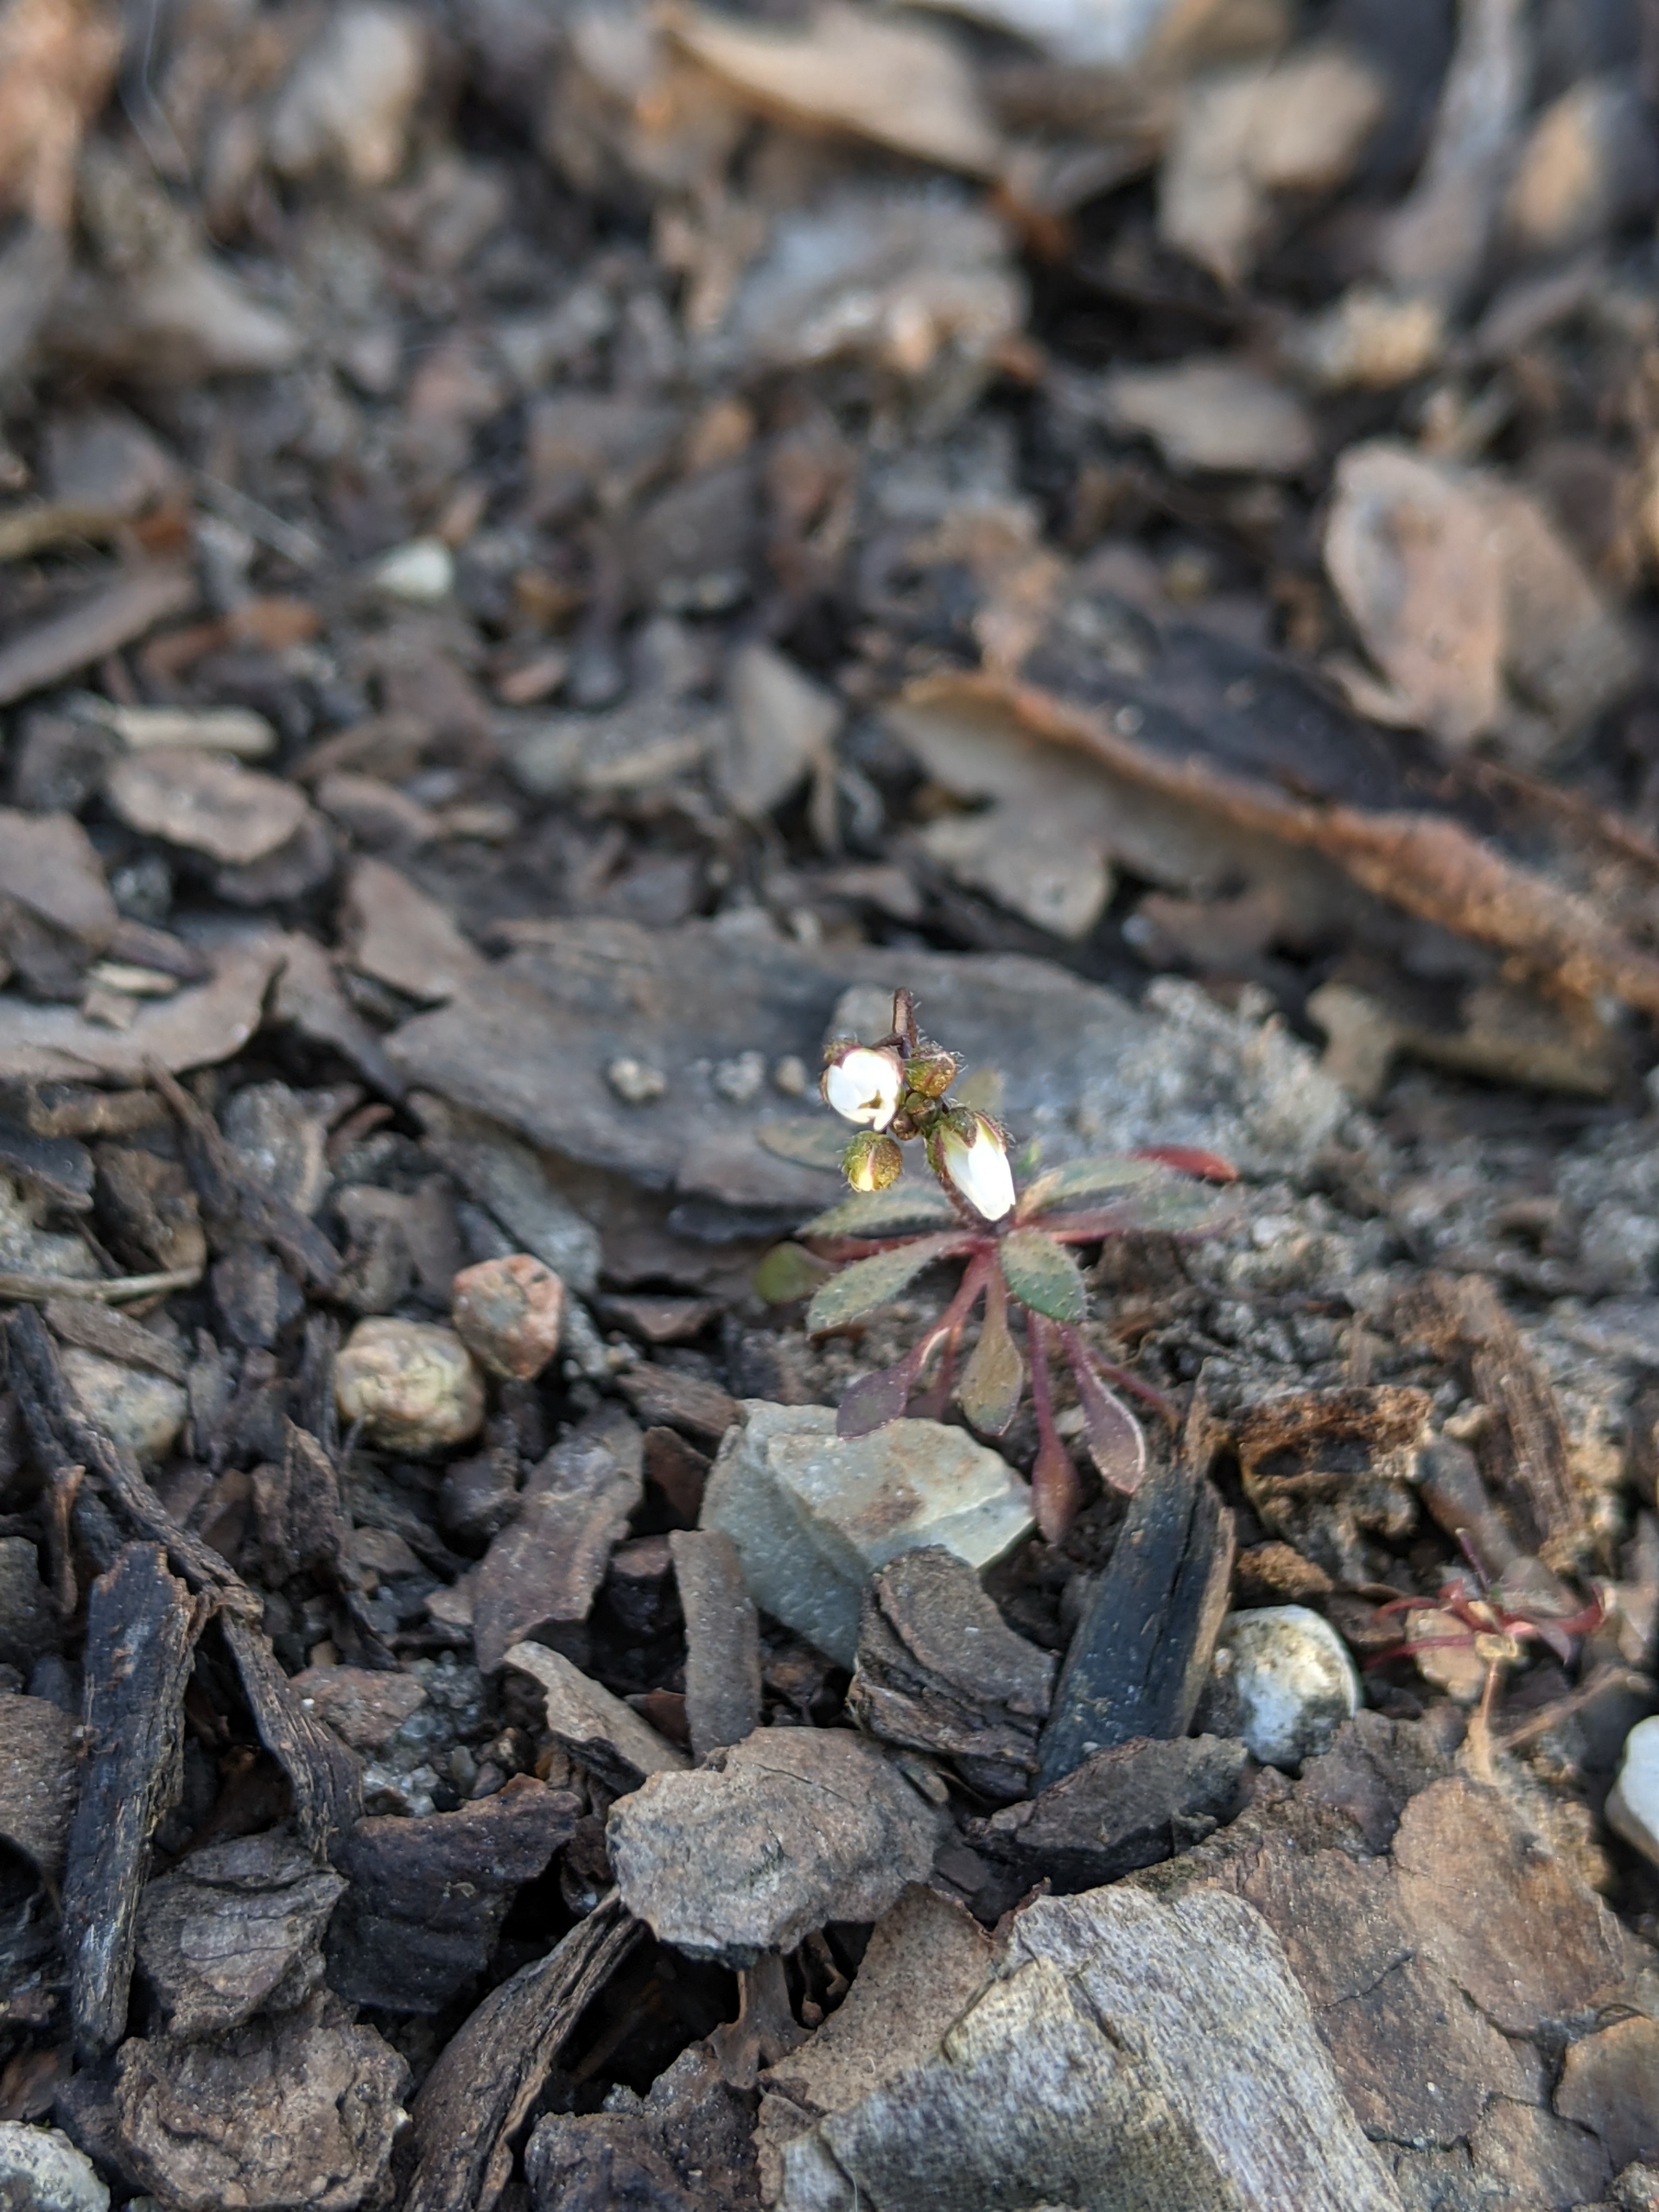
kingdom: Plantae
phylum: Tracheophyta
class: Magnoliopsida
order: Brassicales
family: Brassicaceae
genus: Draba
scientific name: Draba verna
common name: Vår-gæslingeblomst
